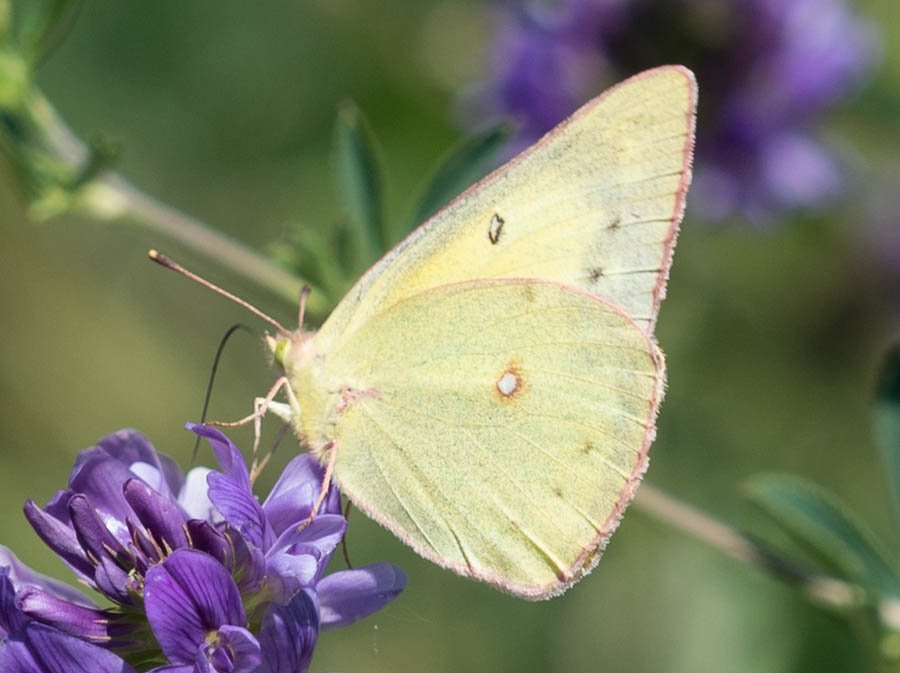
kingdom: Animalia
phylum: Arthropoda
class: Insecta
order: Lepidoptera
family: Pieridae
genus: Colias
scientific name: Colias philodice
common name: Clouded Sulphur
